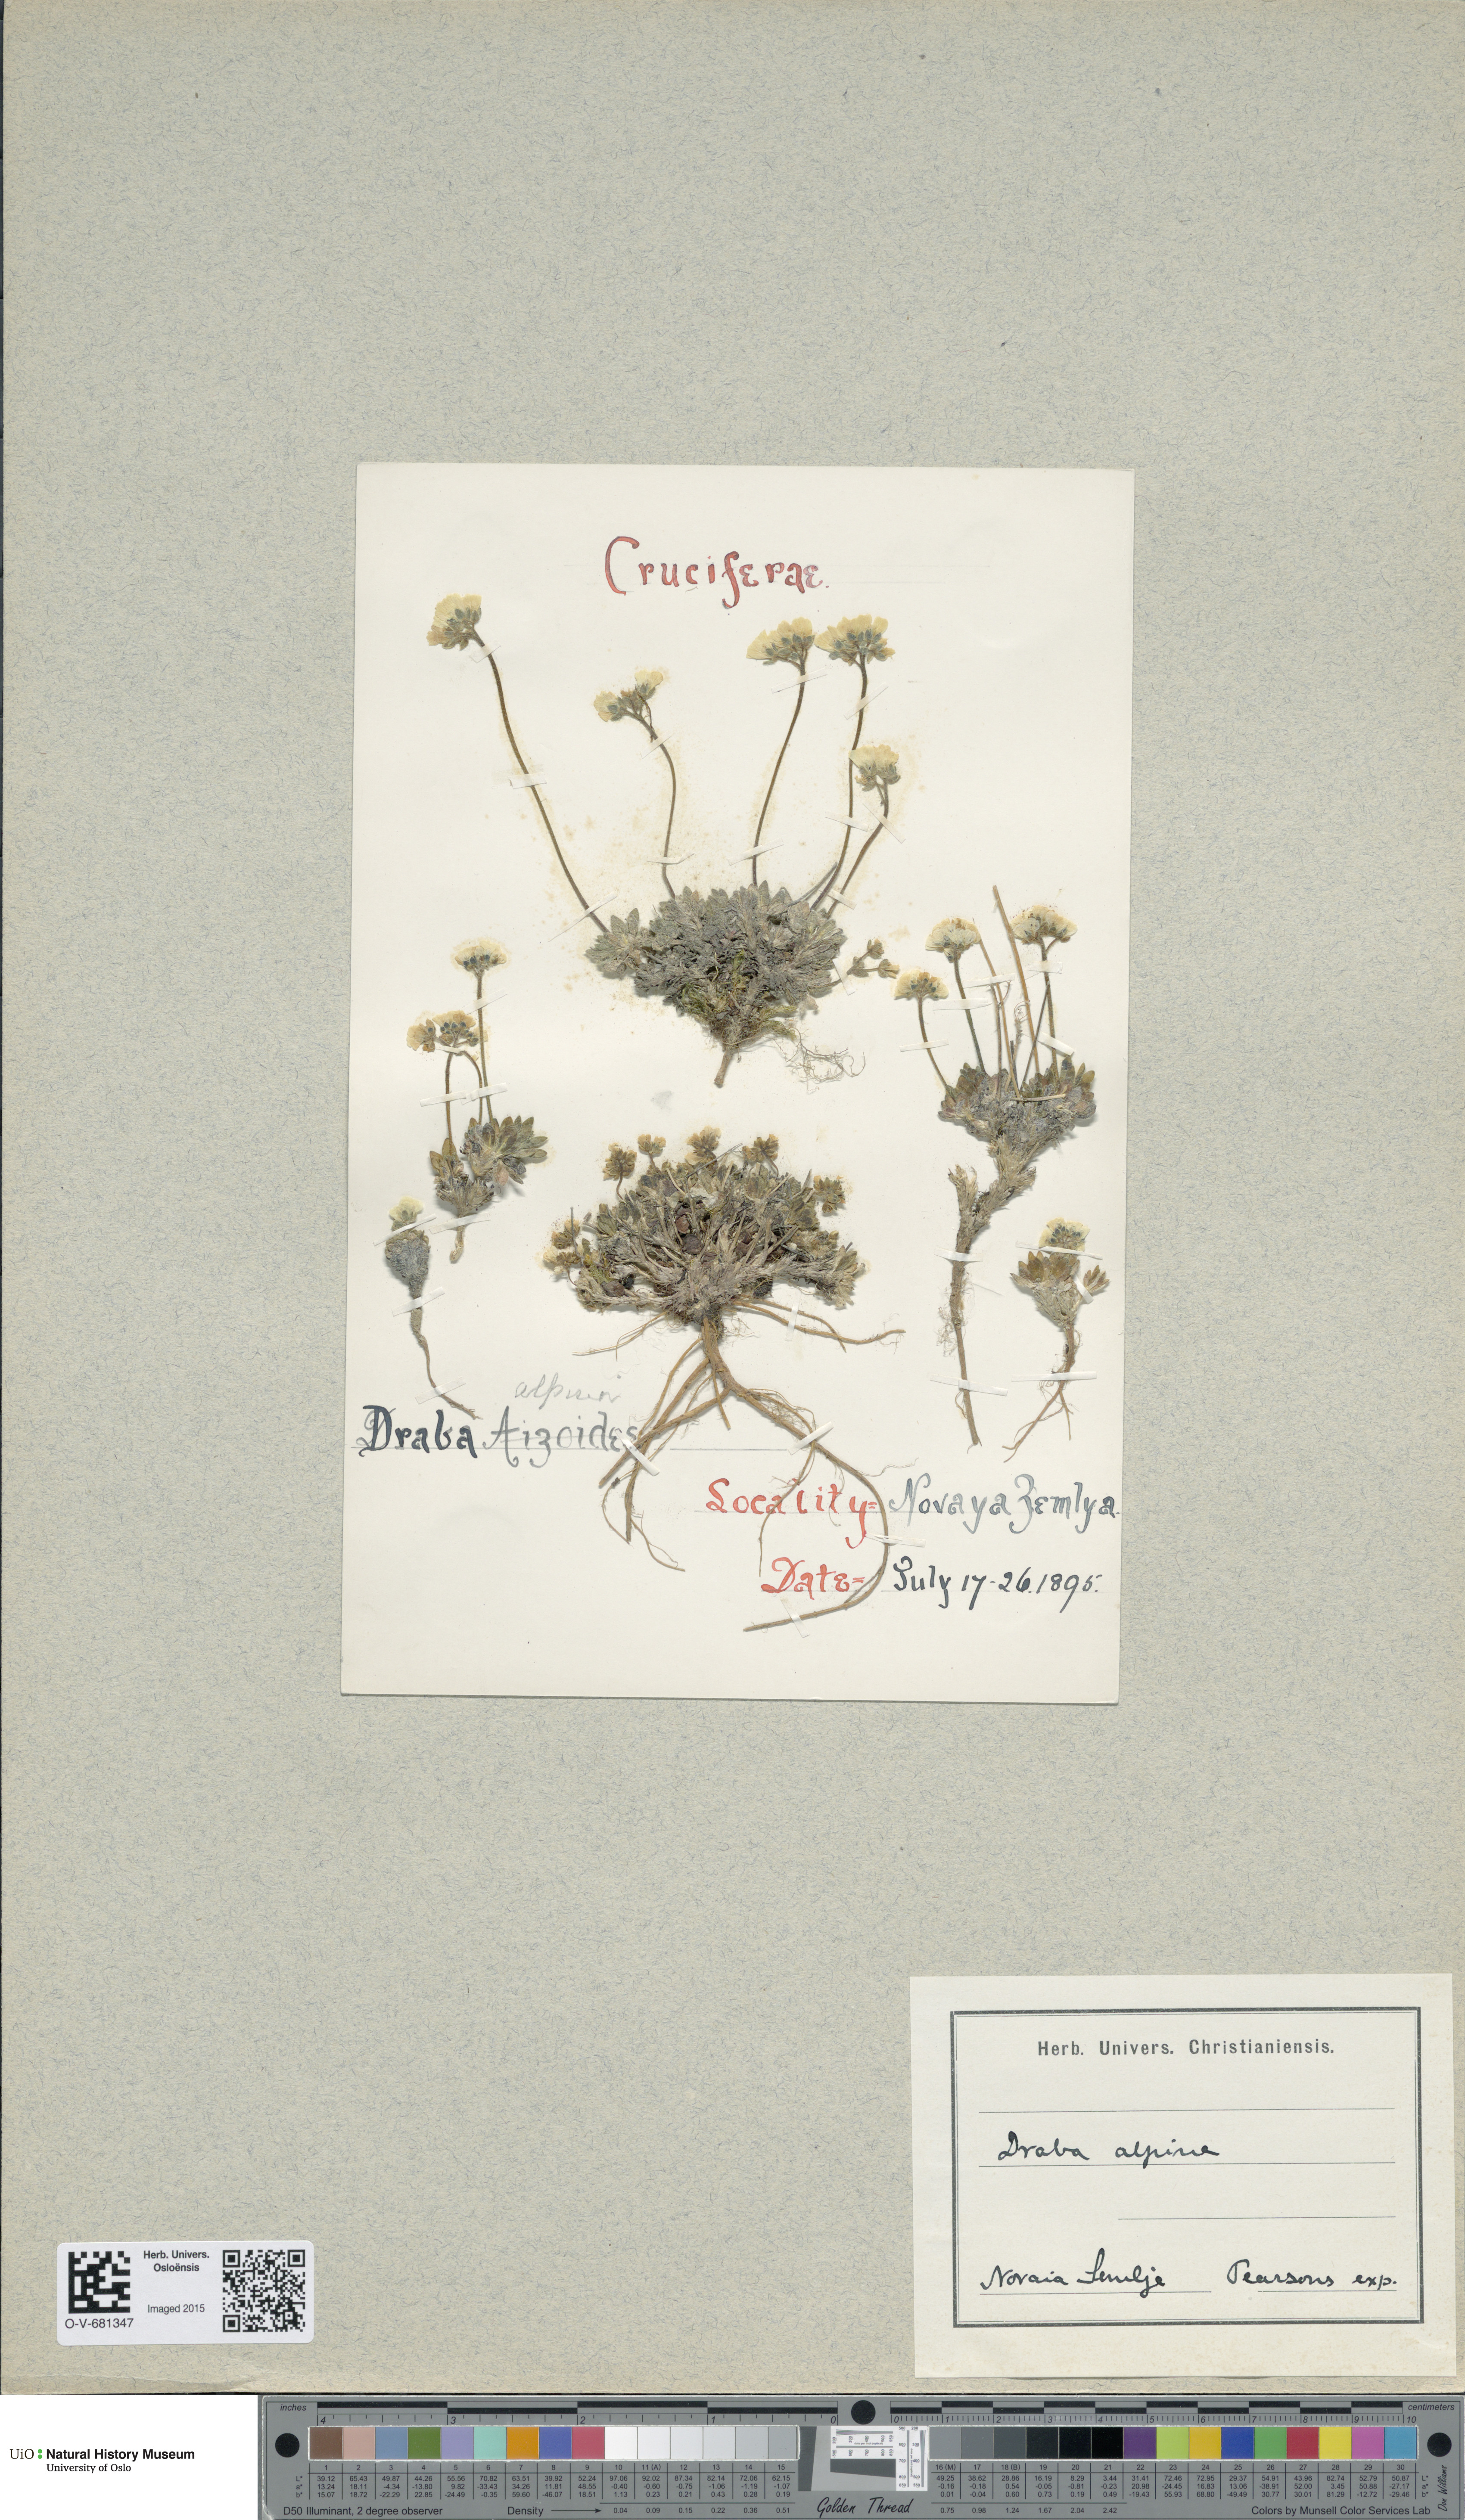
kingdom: Plantae
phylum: Tracheophyta
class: Magnoliopsida
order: Brassicales
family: Brassicaceae
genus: Draba
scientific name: Draba alpina
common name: Alpine draba
